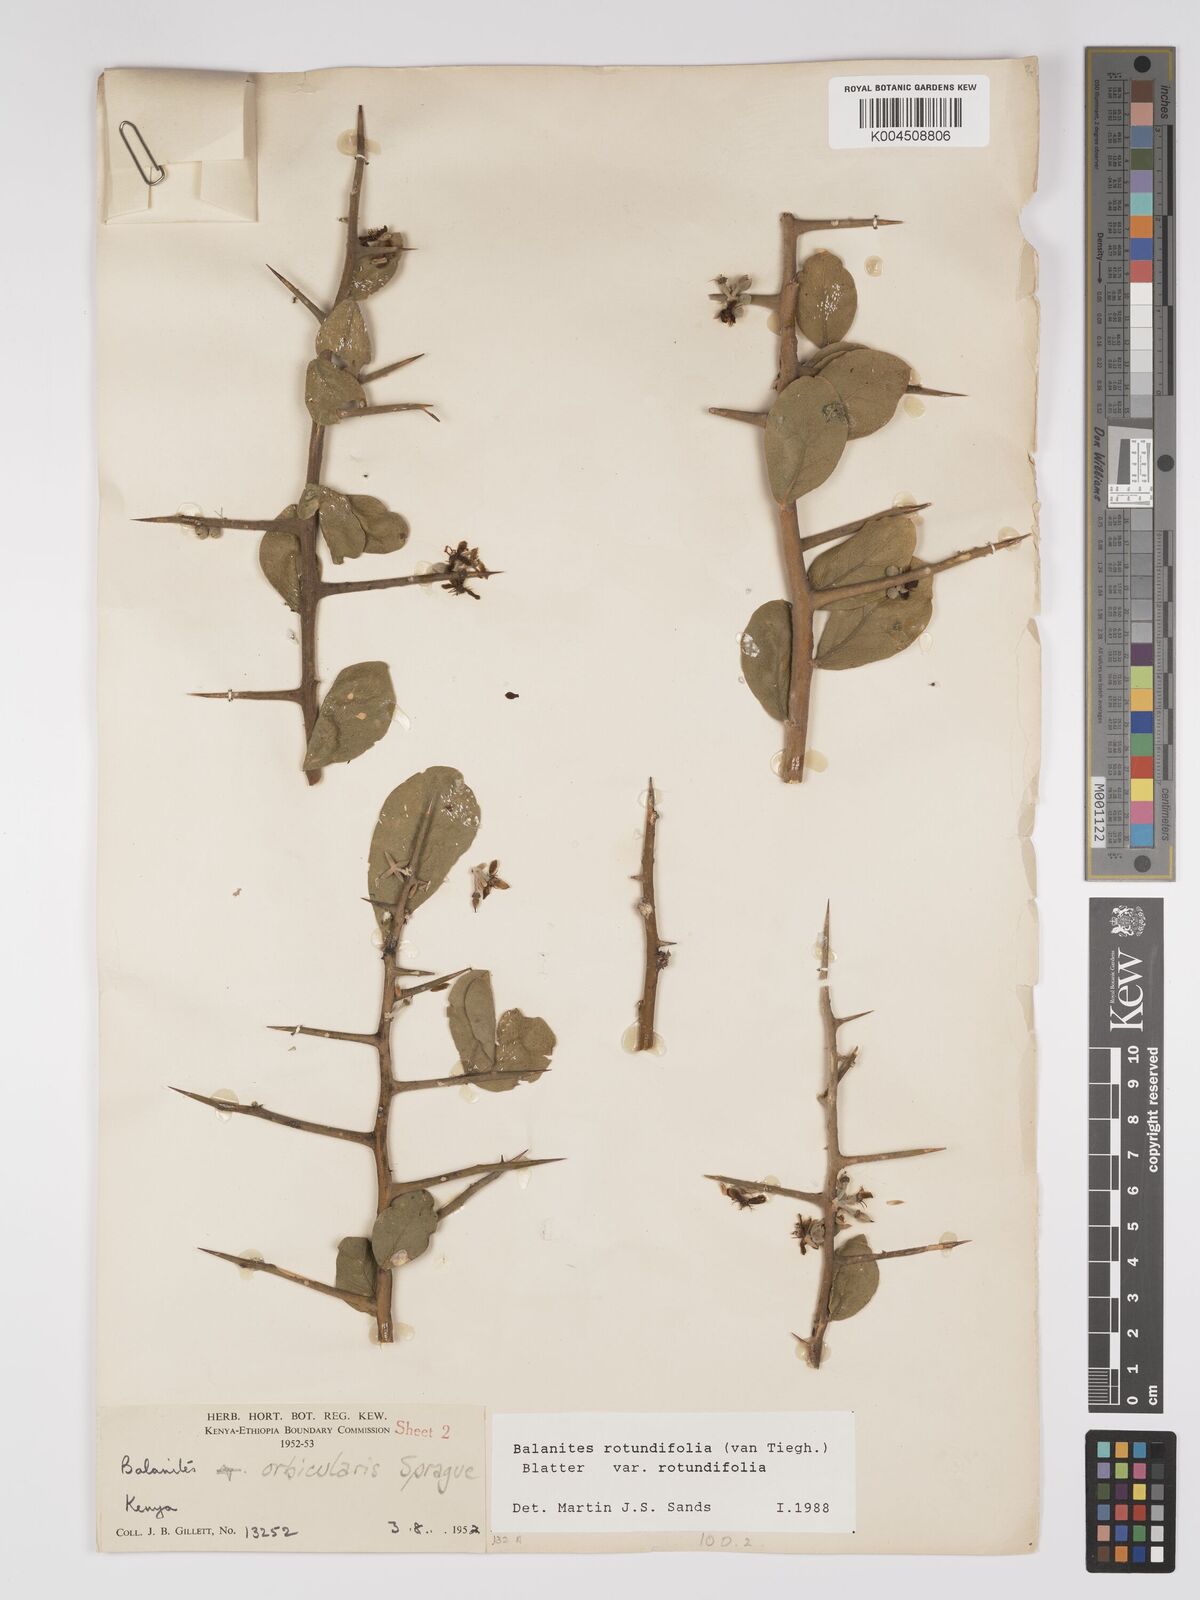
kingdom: Plantae
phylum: Tracheophyta
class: Magnoliopsida
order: Zygophyllales
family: Zygophyllaceae
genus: Balanites
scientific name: Balanites rotundifolia
